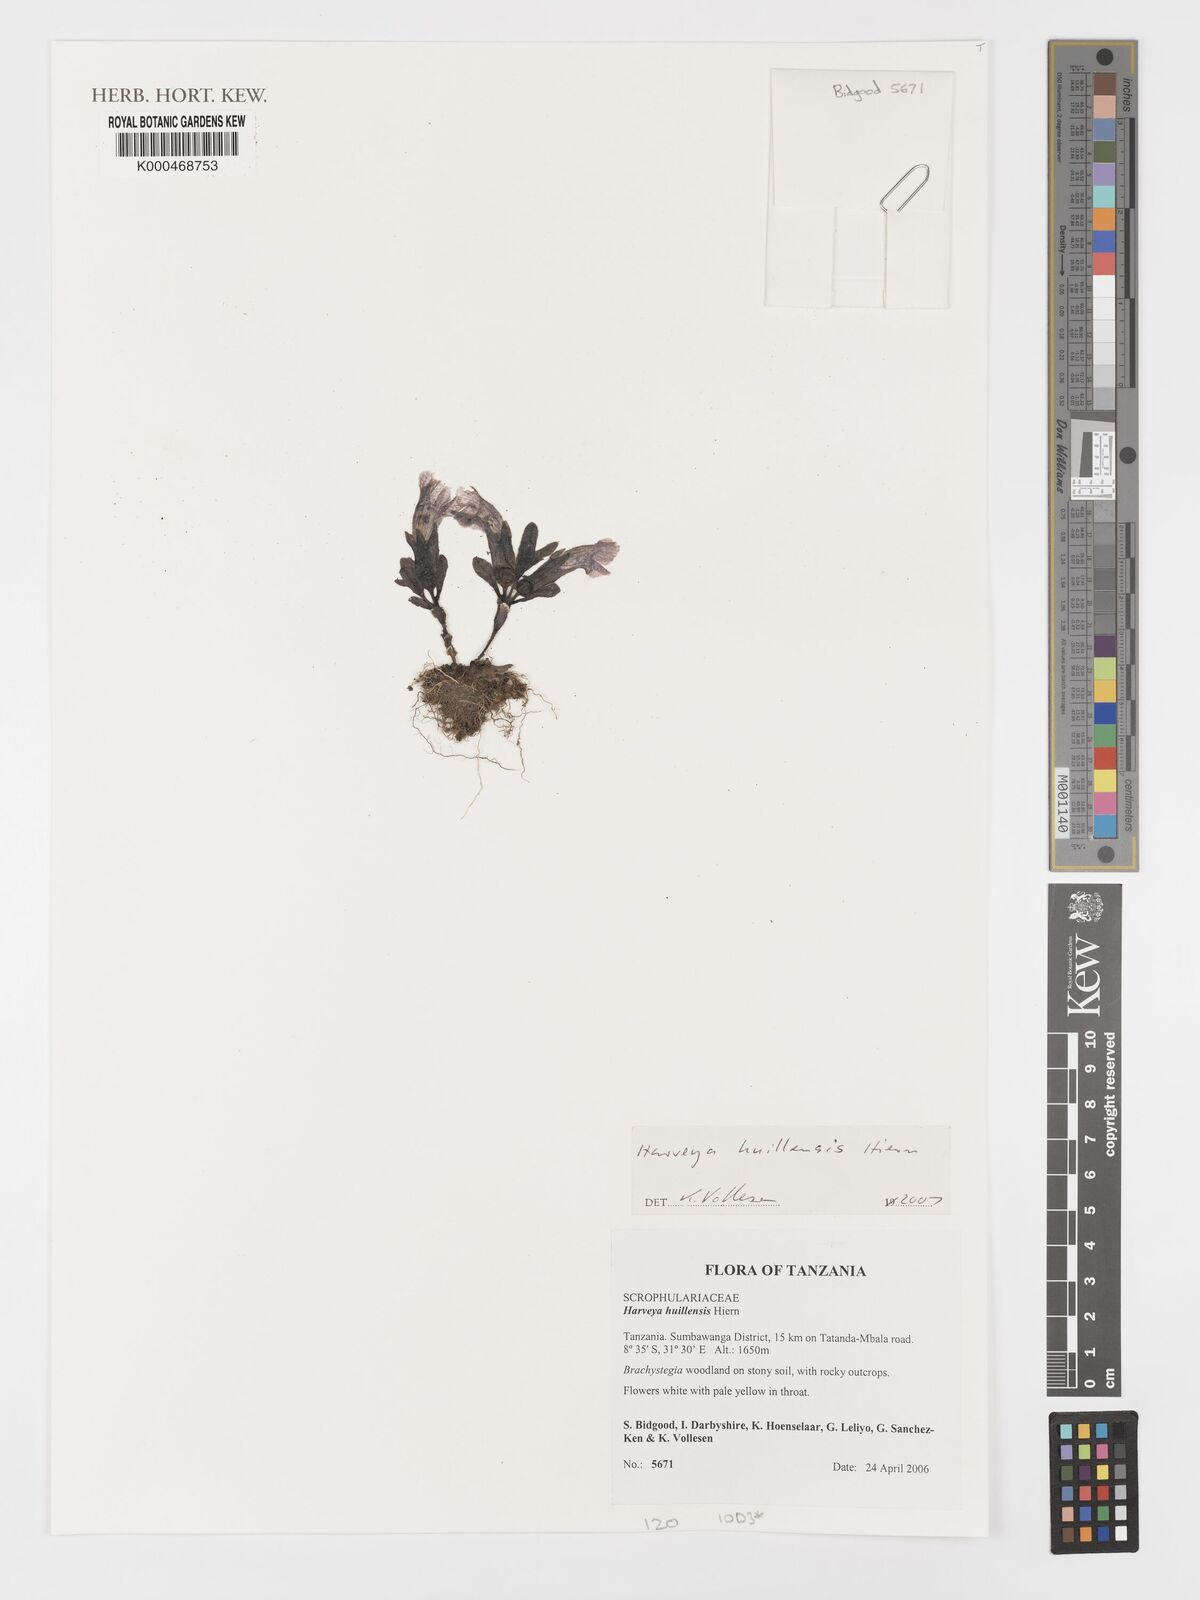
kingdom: Plantae
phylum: Tracheophyta
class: Magnoliopsida
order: Lamiales
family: Orobanchaceae
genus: Harveya
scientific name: Harveya huillensis
